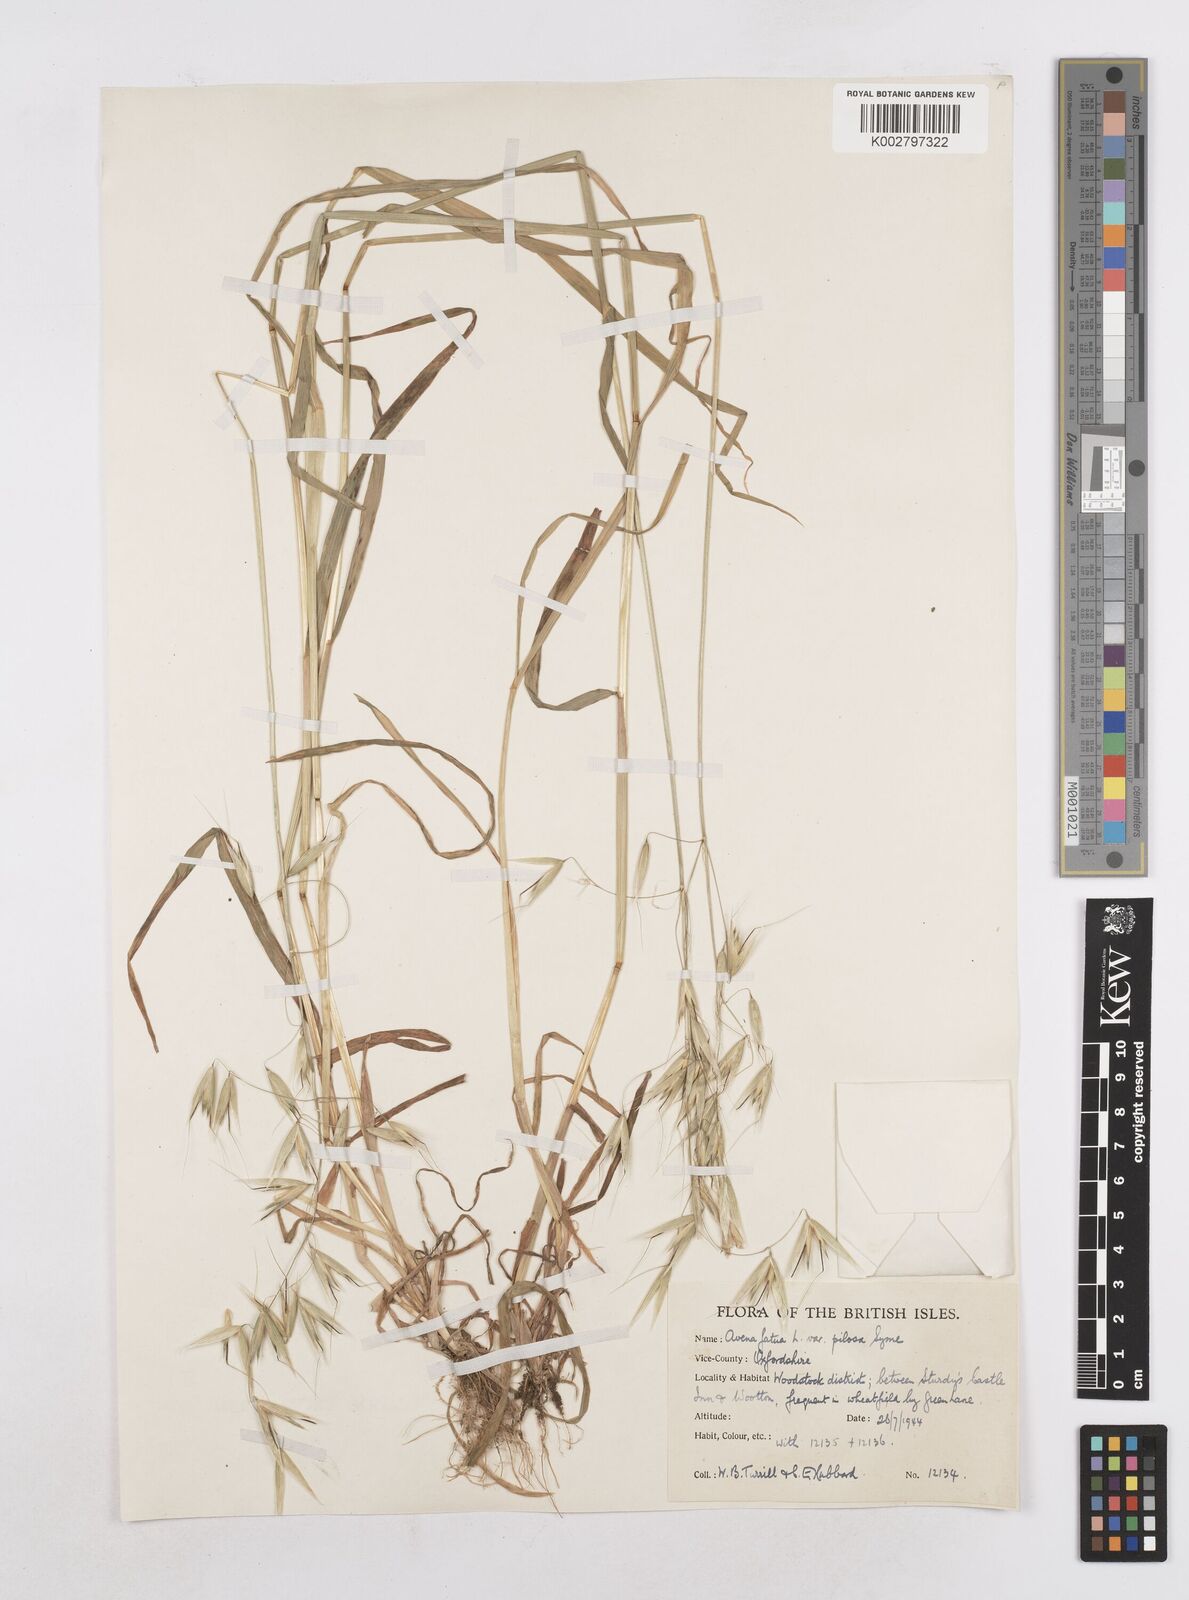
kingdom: Plantae
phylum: Tracheophyta
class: Liliopsida
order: Poales
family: Poaceae
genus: Avena
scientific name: Avena fatua
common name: Wild oat
